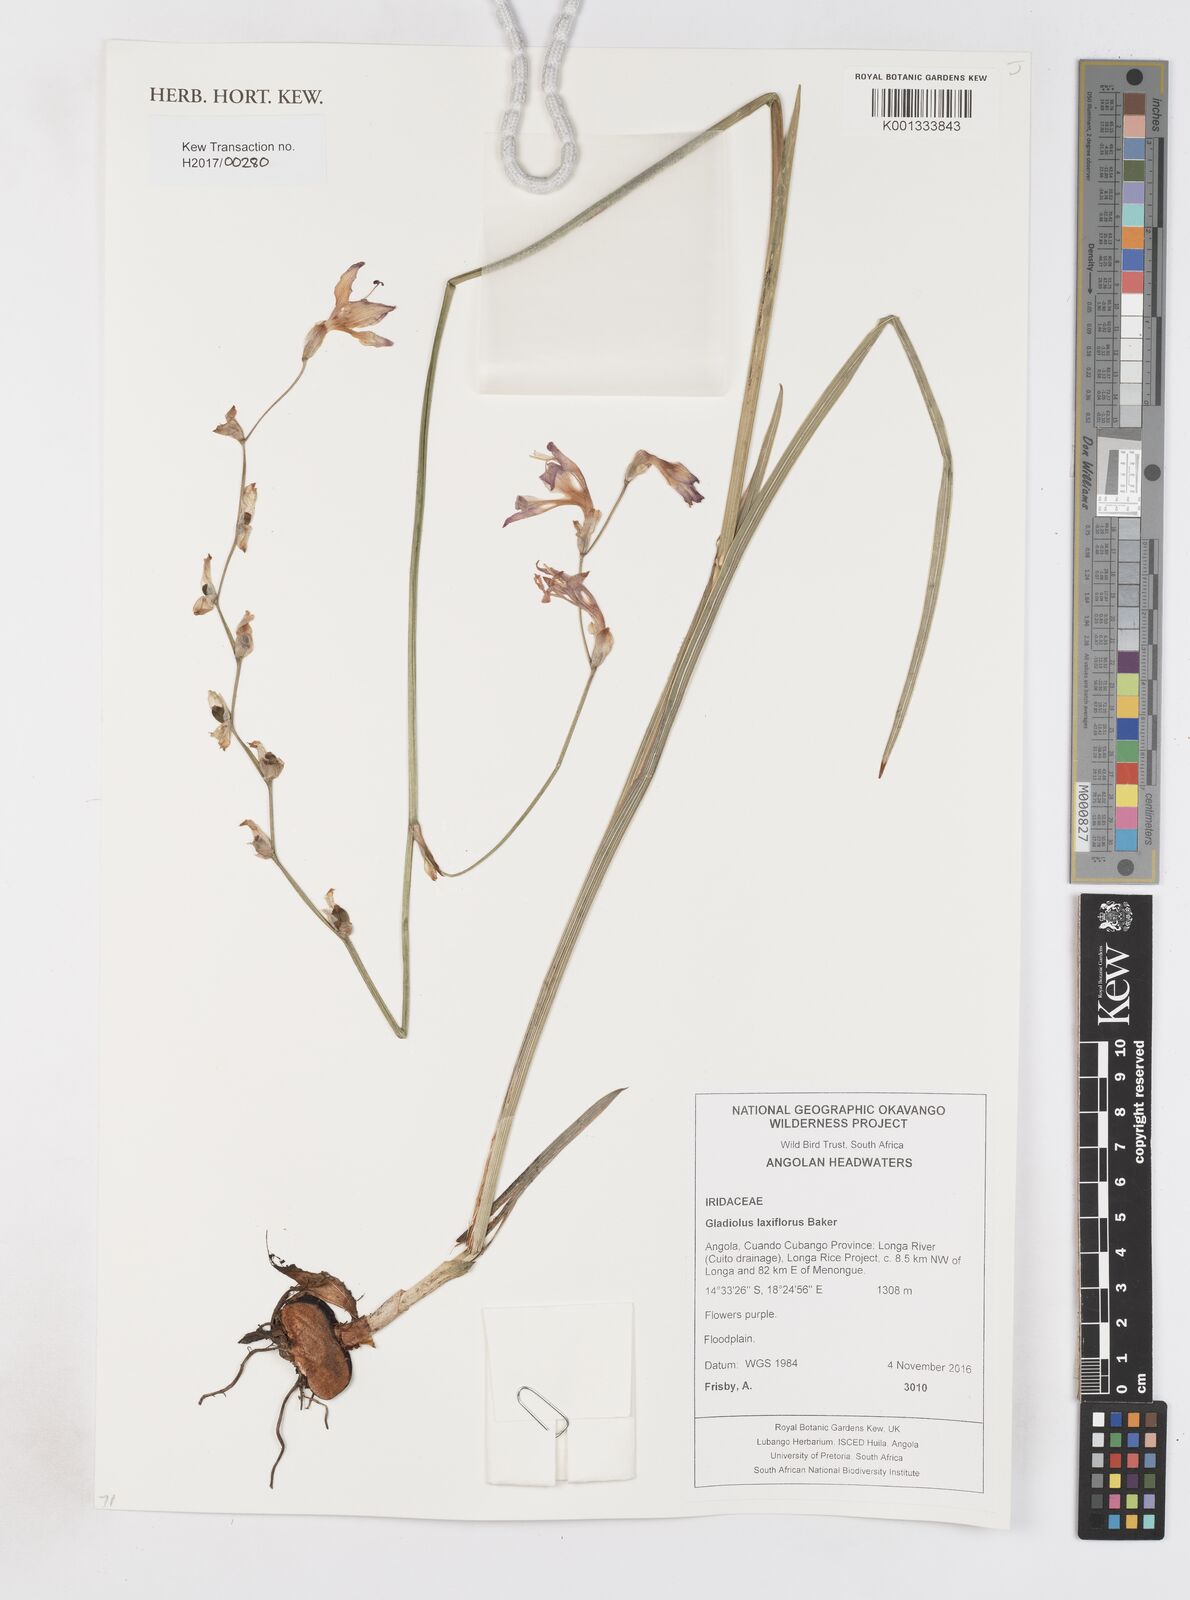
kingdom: Plantae
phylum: Tracheophyta
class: Liliopsida
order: Asparagales
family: Iridaceae
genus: Gladiolus
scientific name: Gladiolus laxiflorus
